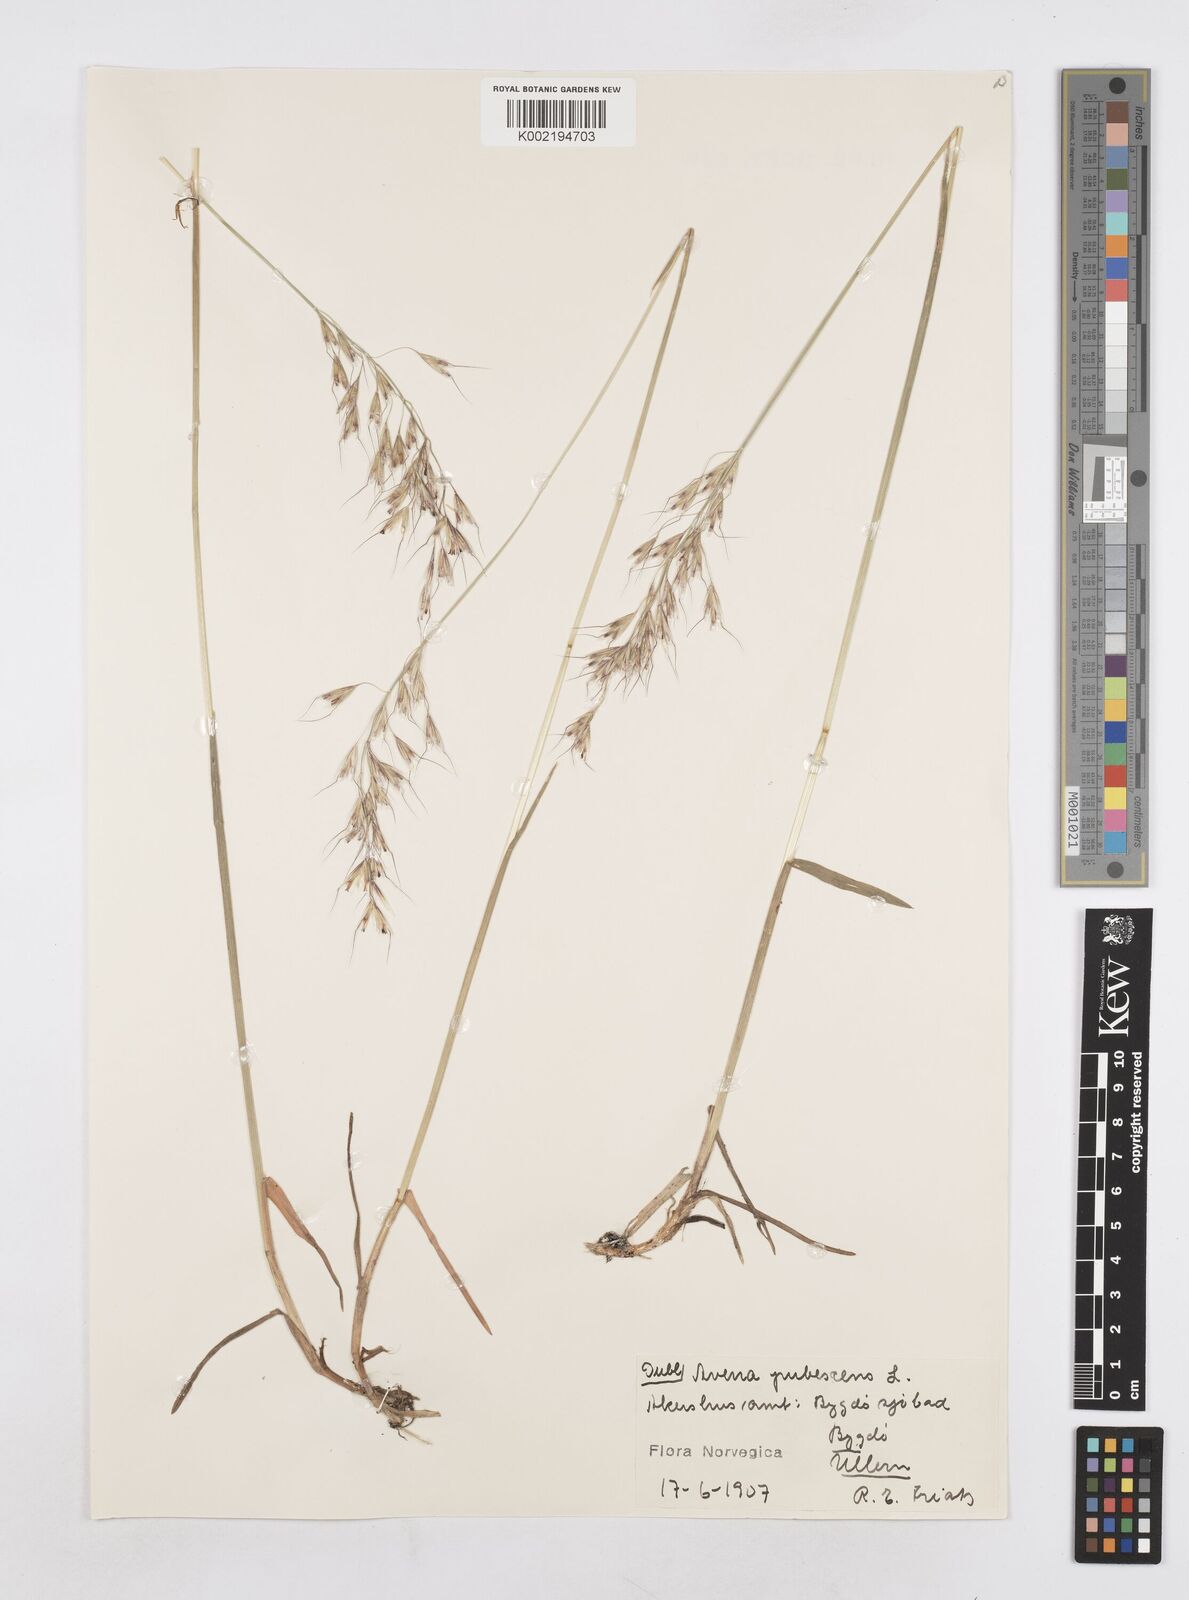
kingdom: Plantae
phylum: Tracheophyta
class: Liliopsida
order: Poales
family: Poaceae
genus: Avenula
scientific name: Avenula pubescens
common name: Downy alpine oatgrass
